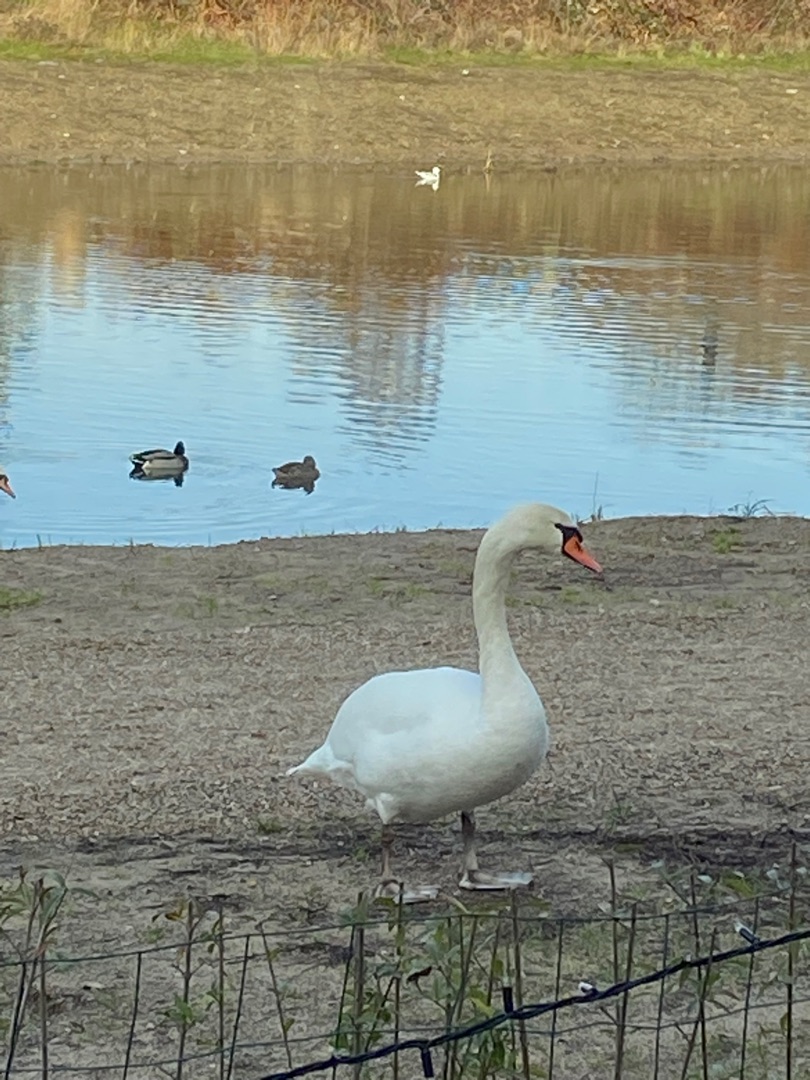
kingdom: Animalia
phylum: Chordata
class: Aves
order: Anseriformes
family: Anatidae
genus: Cygnus
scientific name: Cygnus olor
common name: Knopsvane
